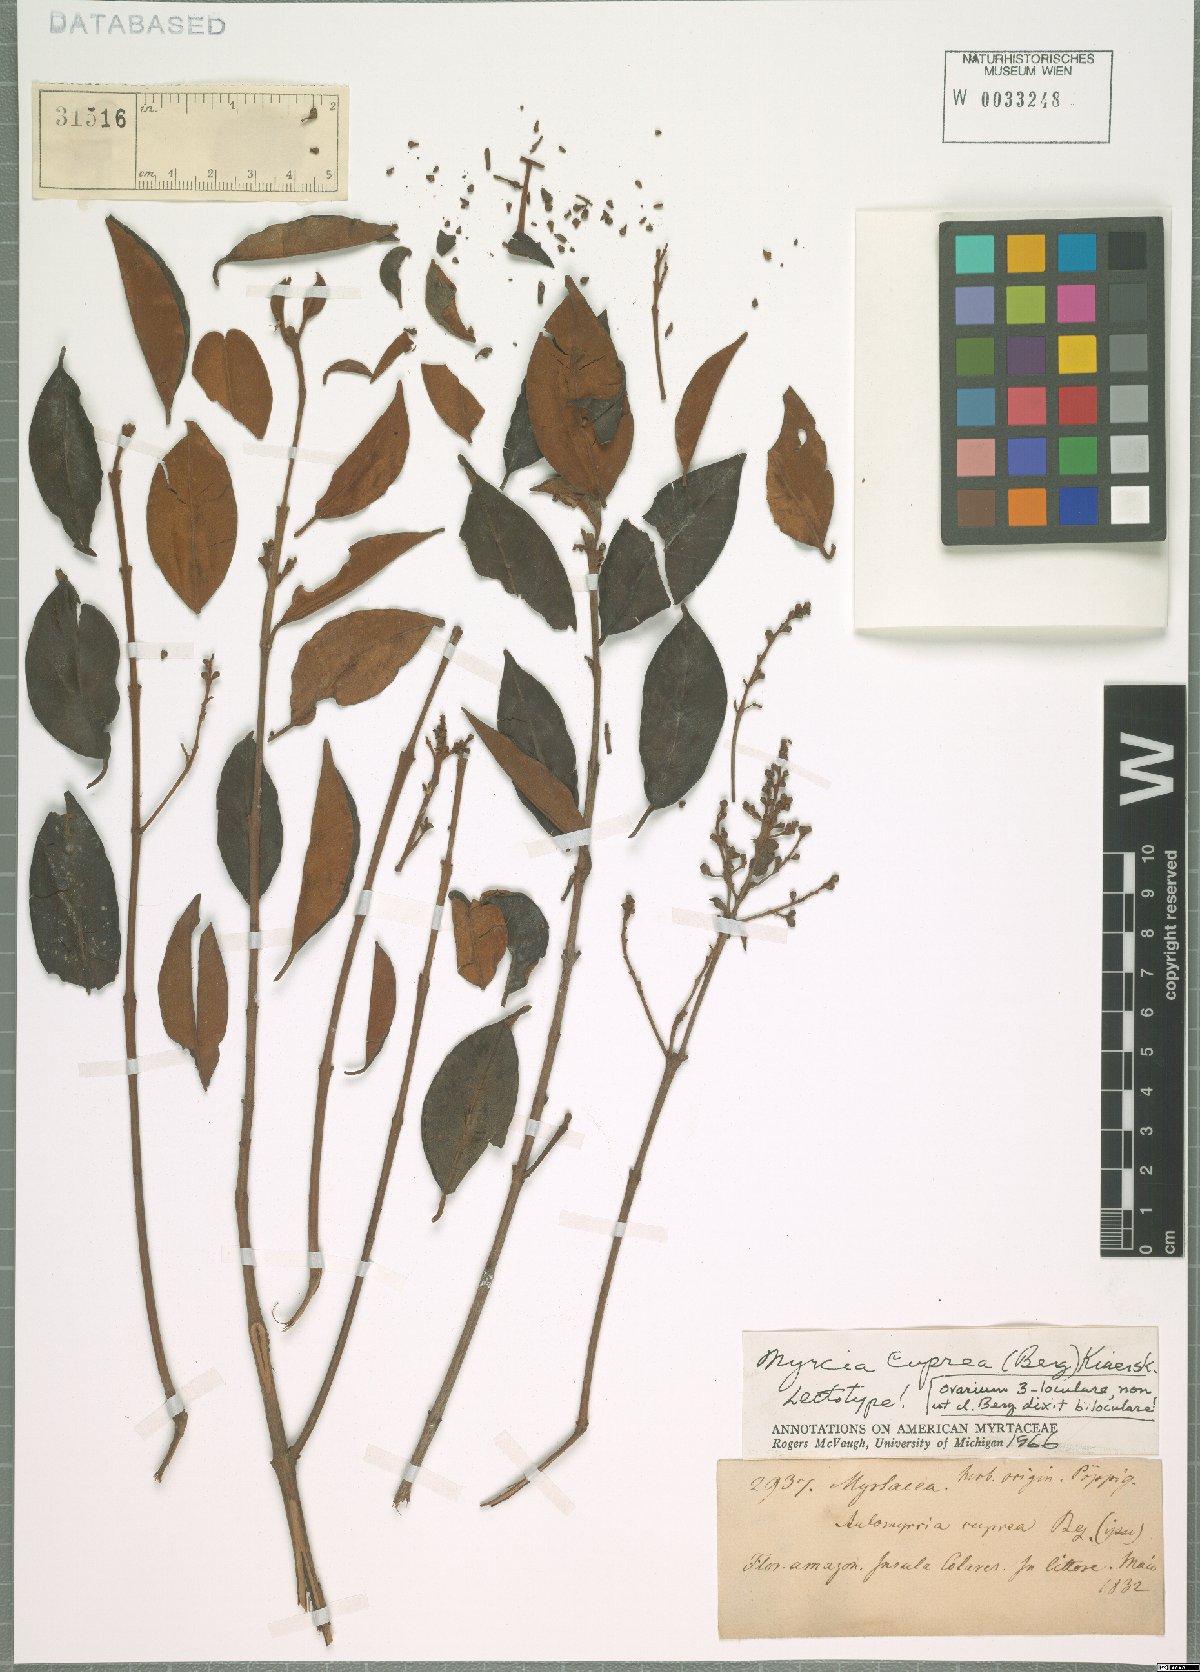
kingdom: Plantae
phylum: Tracheophyta
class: Magnoliopsida
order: Myrtales
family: Myrtaceae
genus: Myrcia
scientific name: Myrcia cuprea
